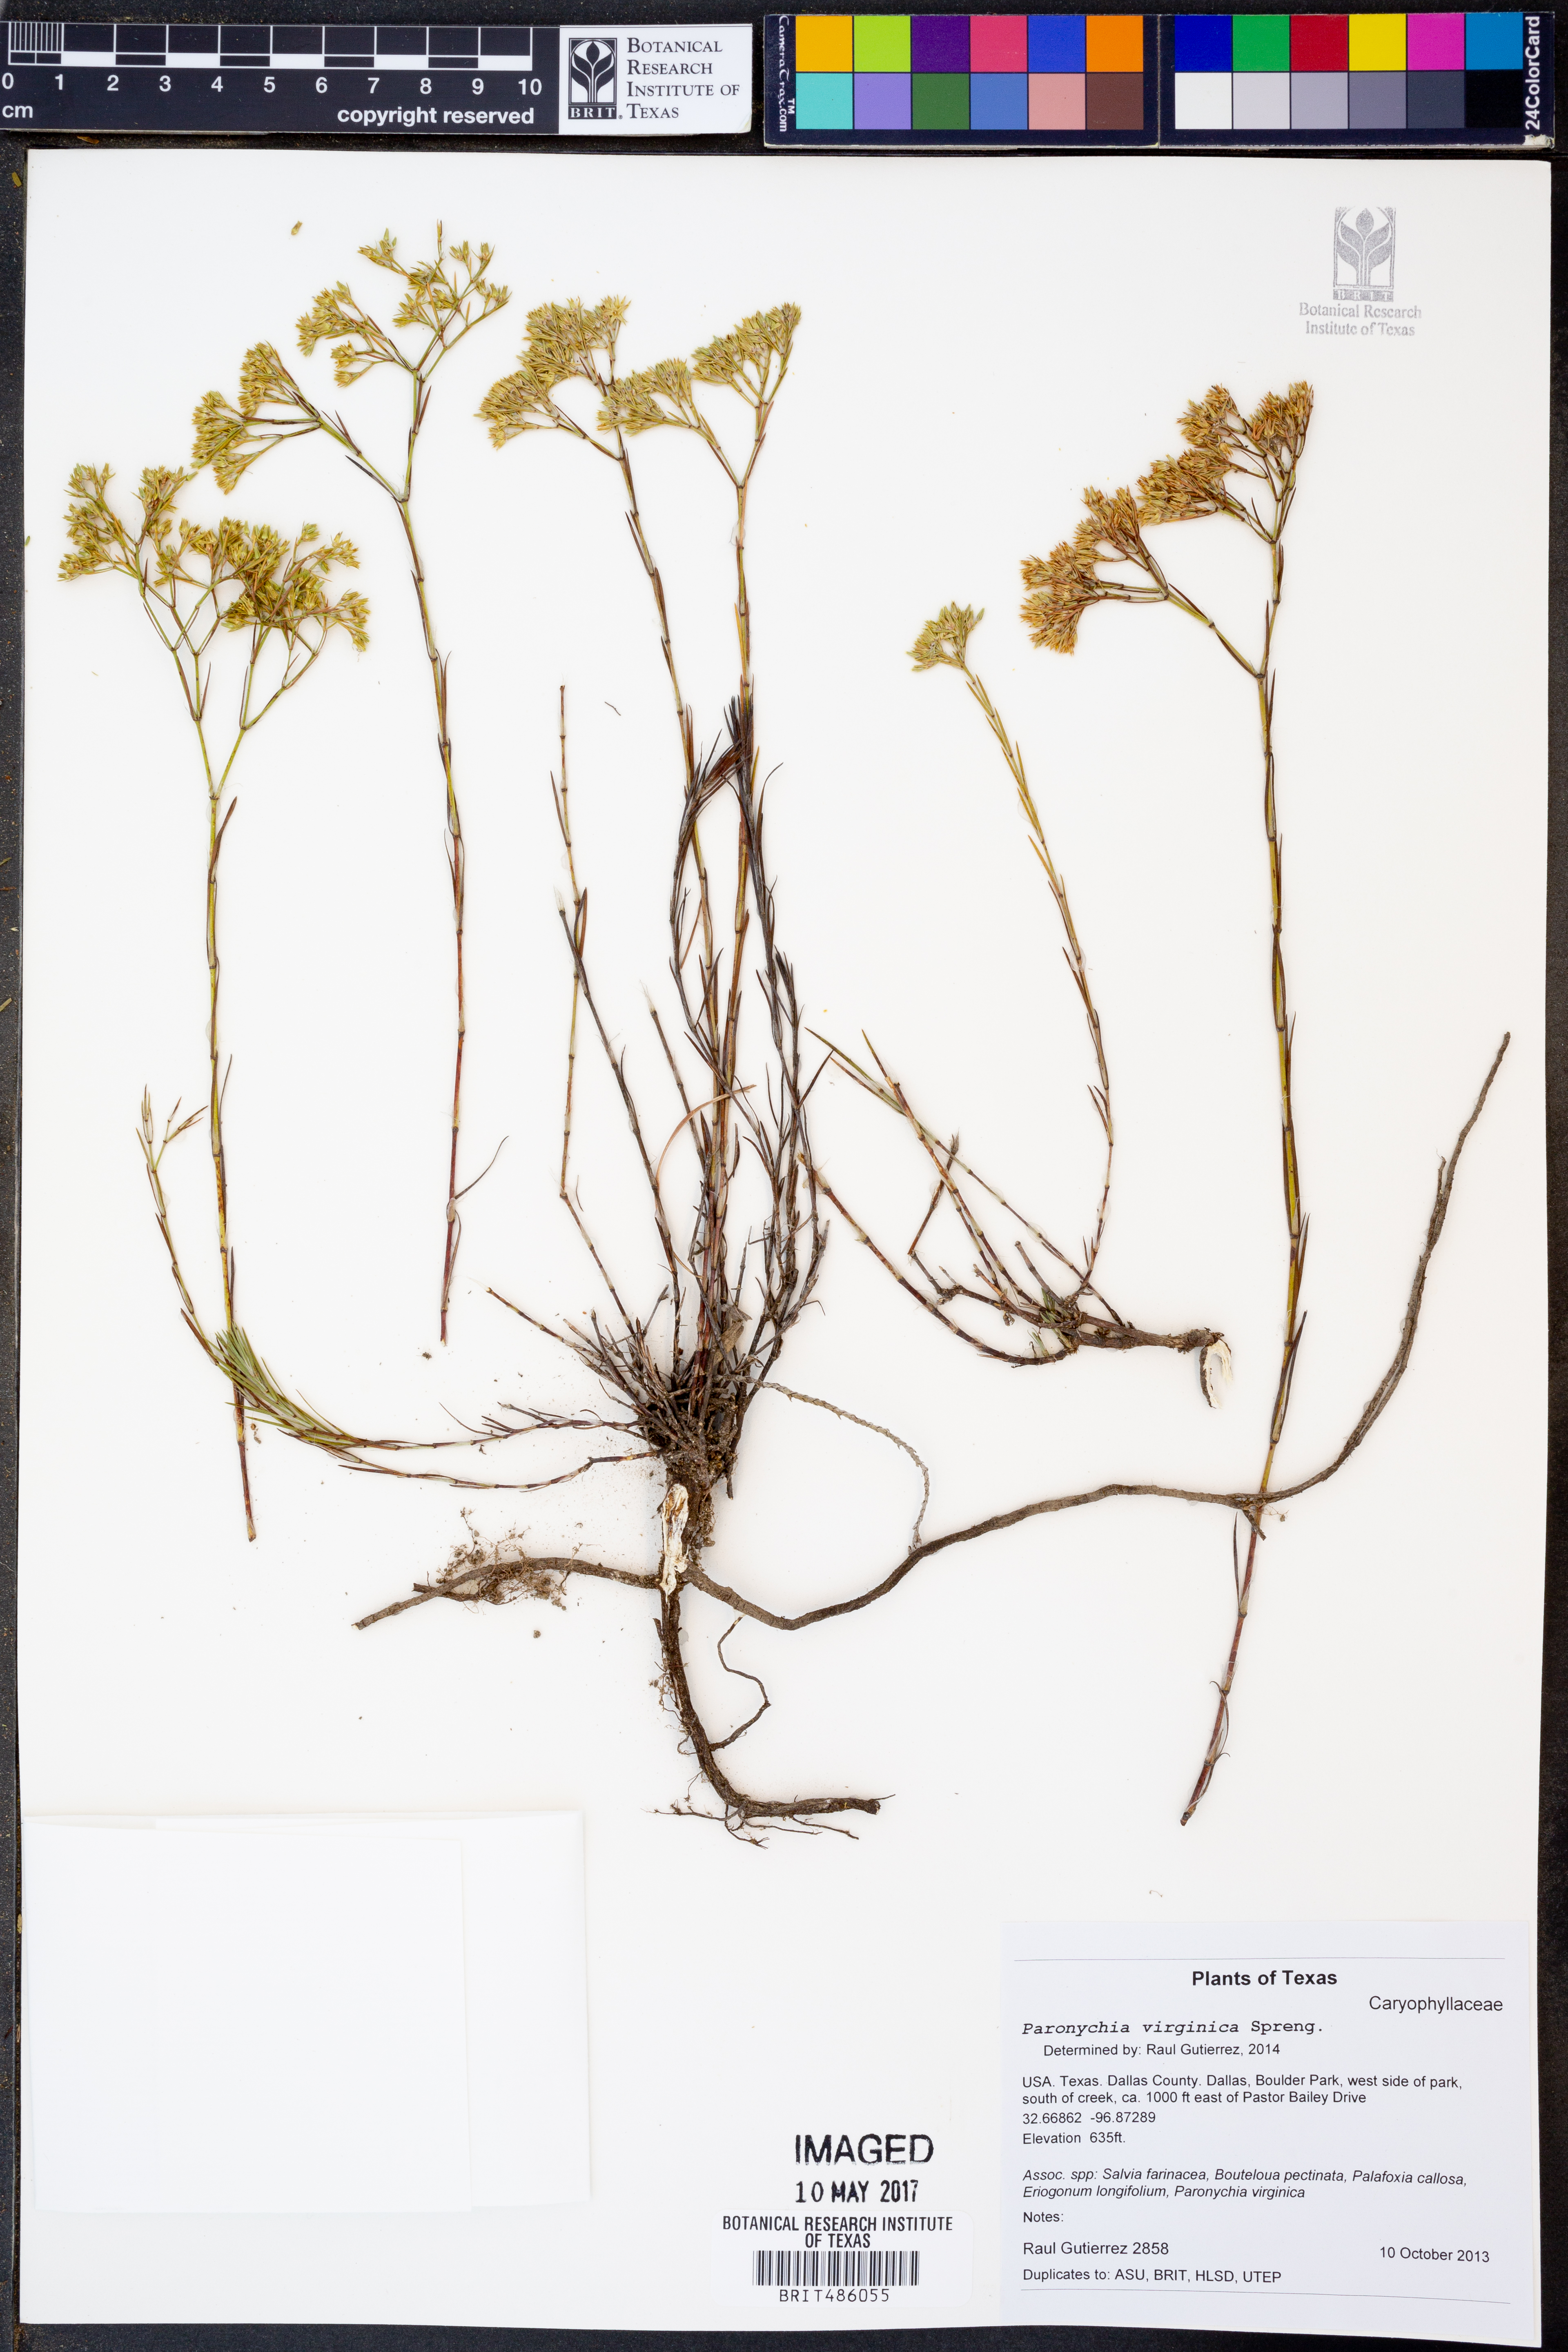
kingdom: Plantae
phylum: Tracheophyta
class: Magnoliopsida
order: Caryophyllales
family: Caryophyllaceae
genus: Paronychia
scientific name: Paronychia virginica
